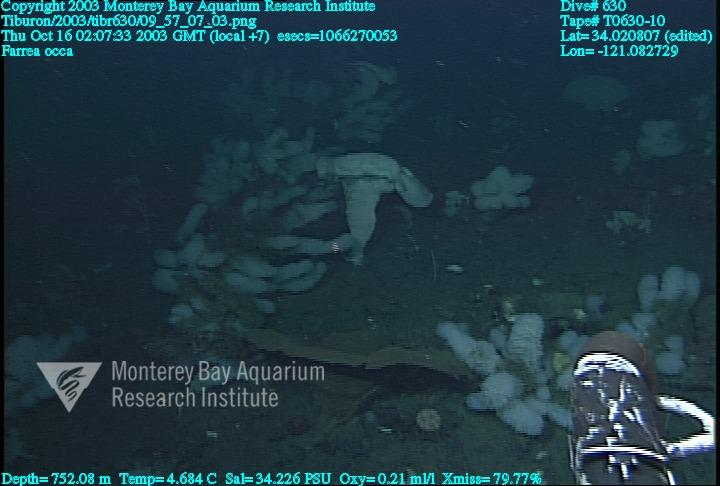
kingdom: Animalia
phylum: Porifera
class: Hexactinellida
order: Sceptrulophora
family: Farreidae
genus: Farrea
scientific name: Farrea occa
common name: Reversed glass sponge
